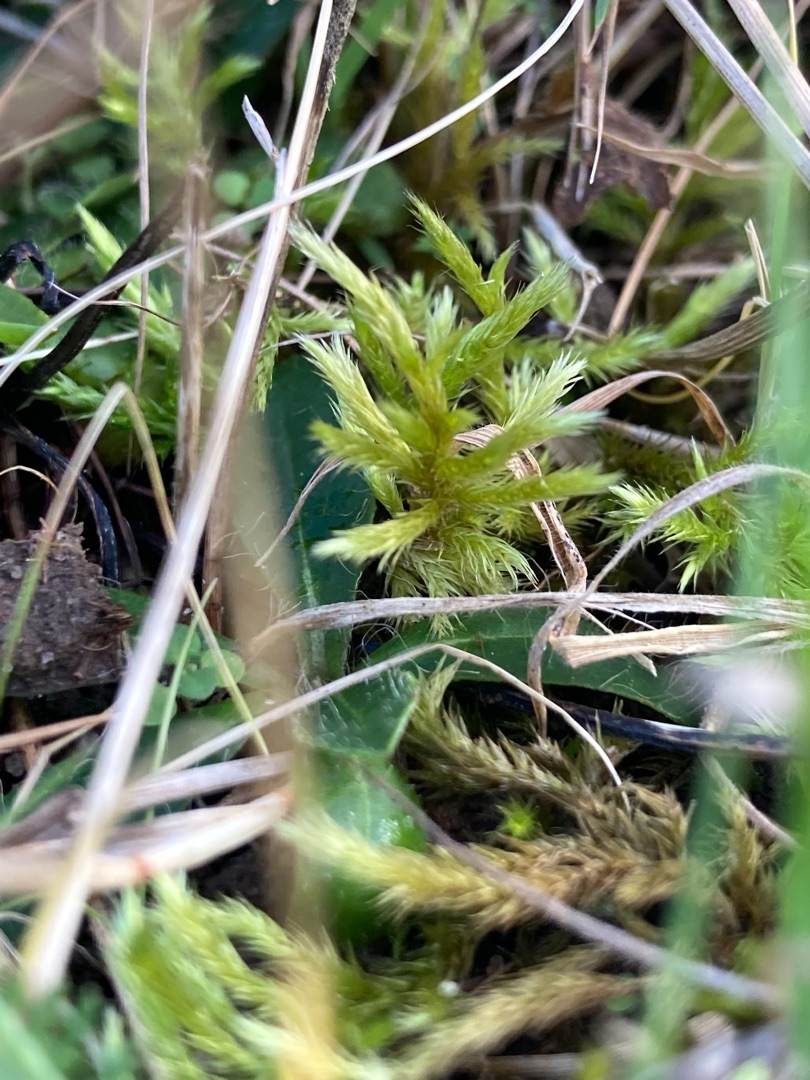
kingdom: Plantae
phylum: Bryophyta
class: Bryopsida
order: Hypnales
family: Brachytheciaceae
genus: Homalothecium
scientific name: Homalothecium lutescens
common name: Gul krumkapsel
